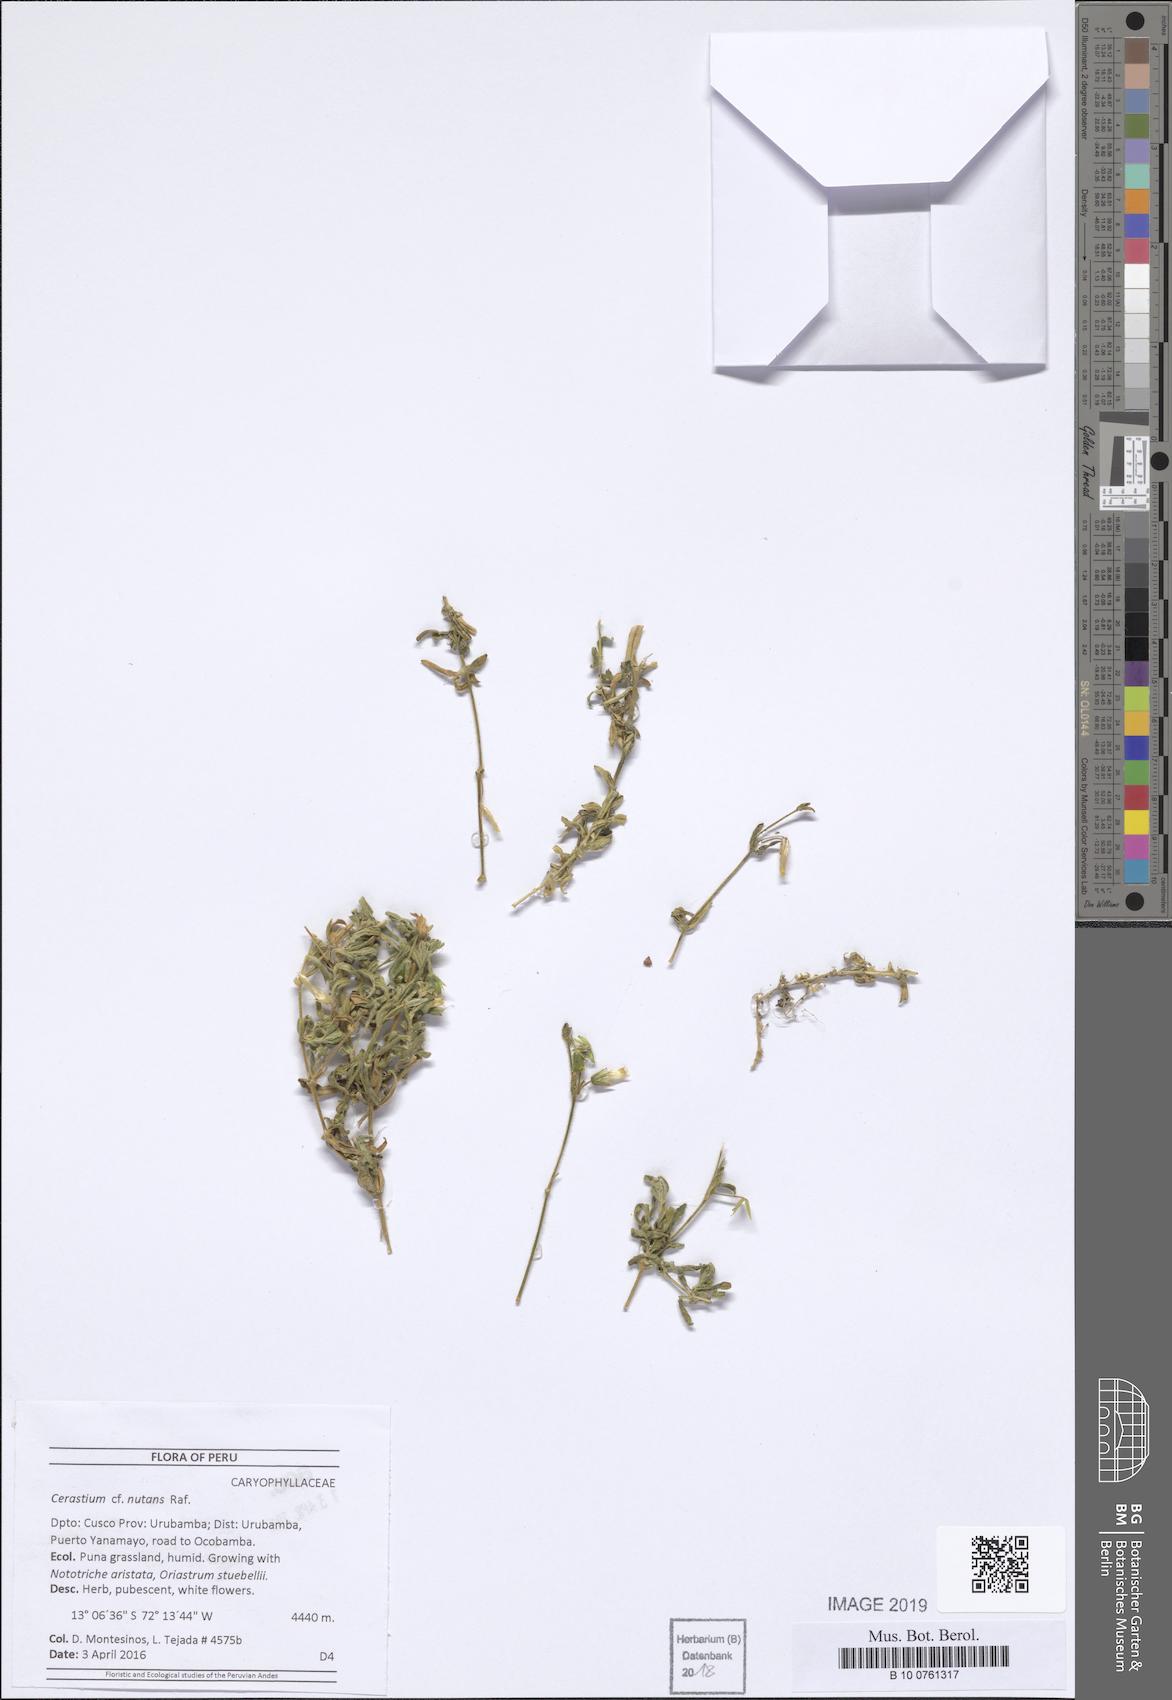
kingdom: Plantae
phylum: Tracheophyta
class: Magnoliopsida
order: Caryophyllales
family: Caryophyllaceae
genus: Cerastium
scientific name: Cerastium nutans
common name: Long-stalked chickweed
